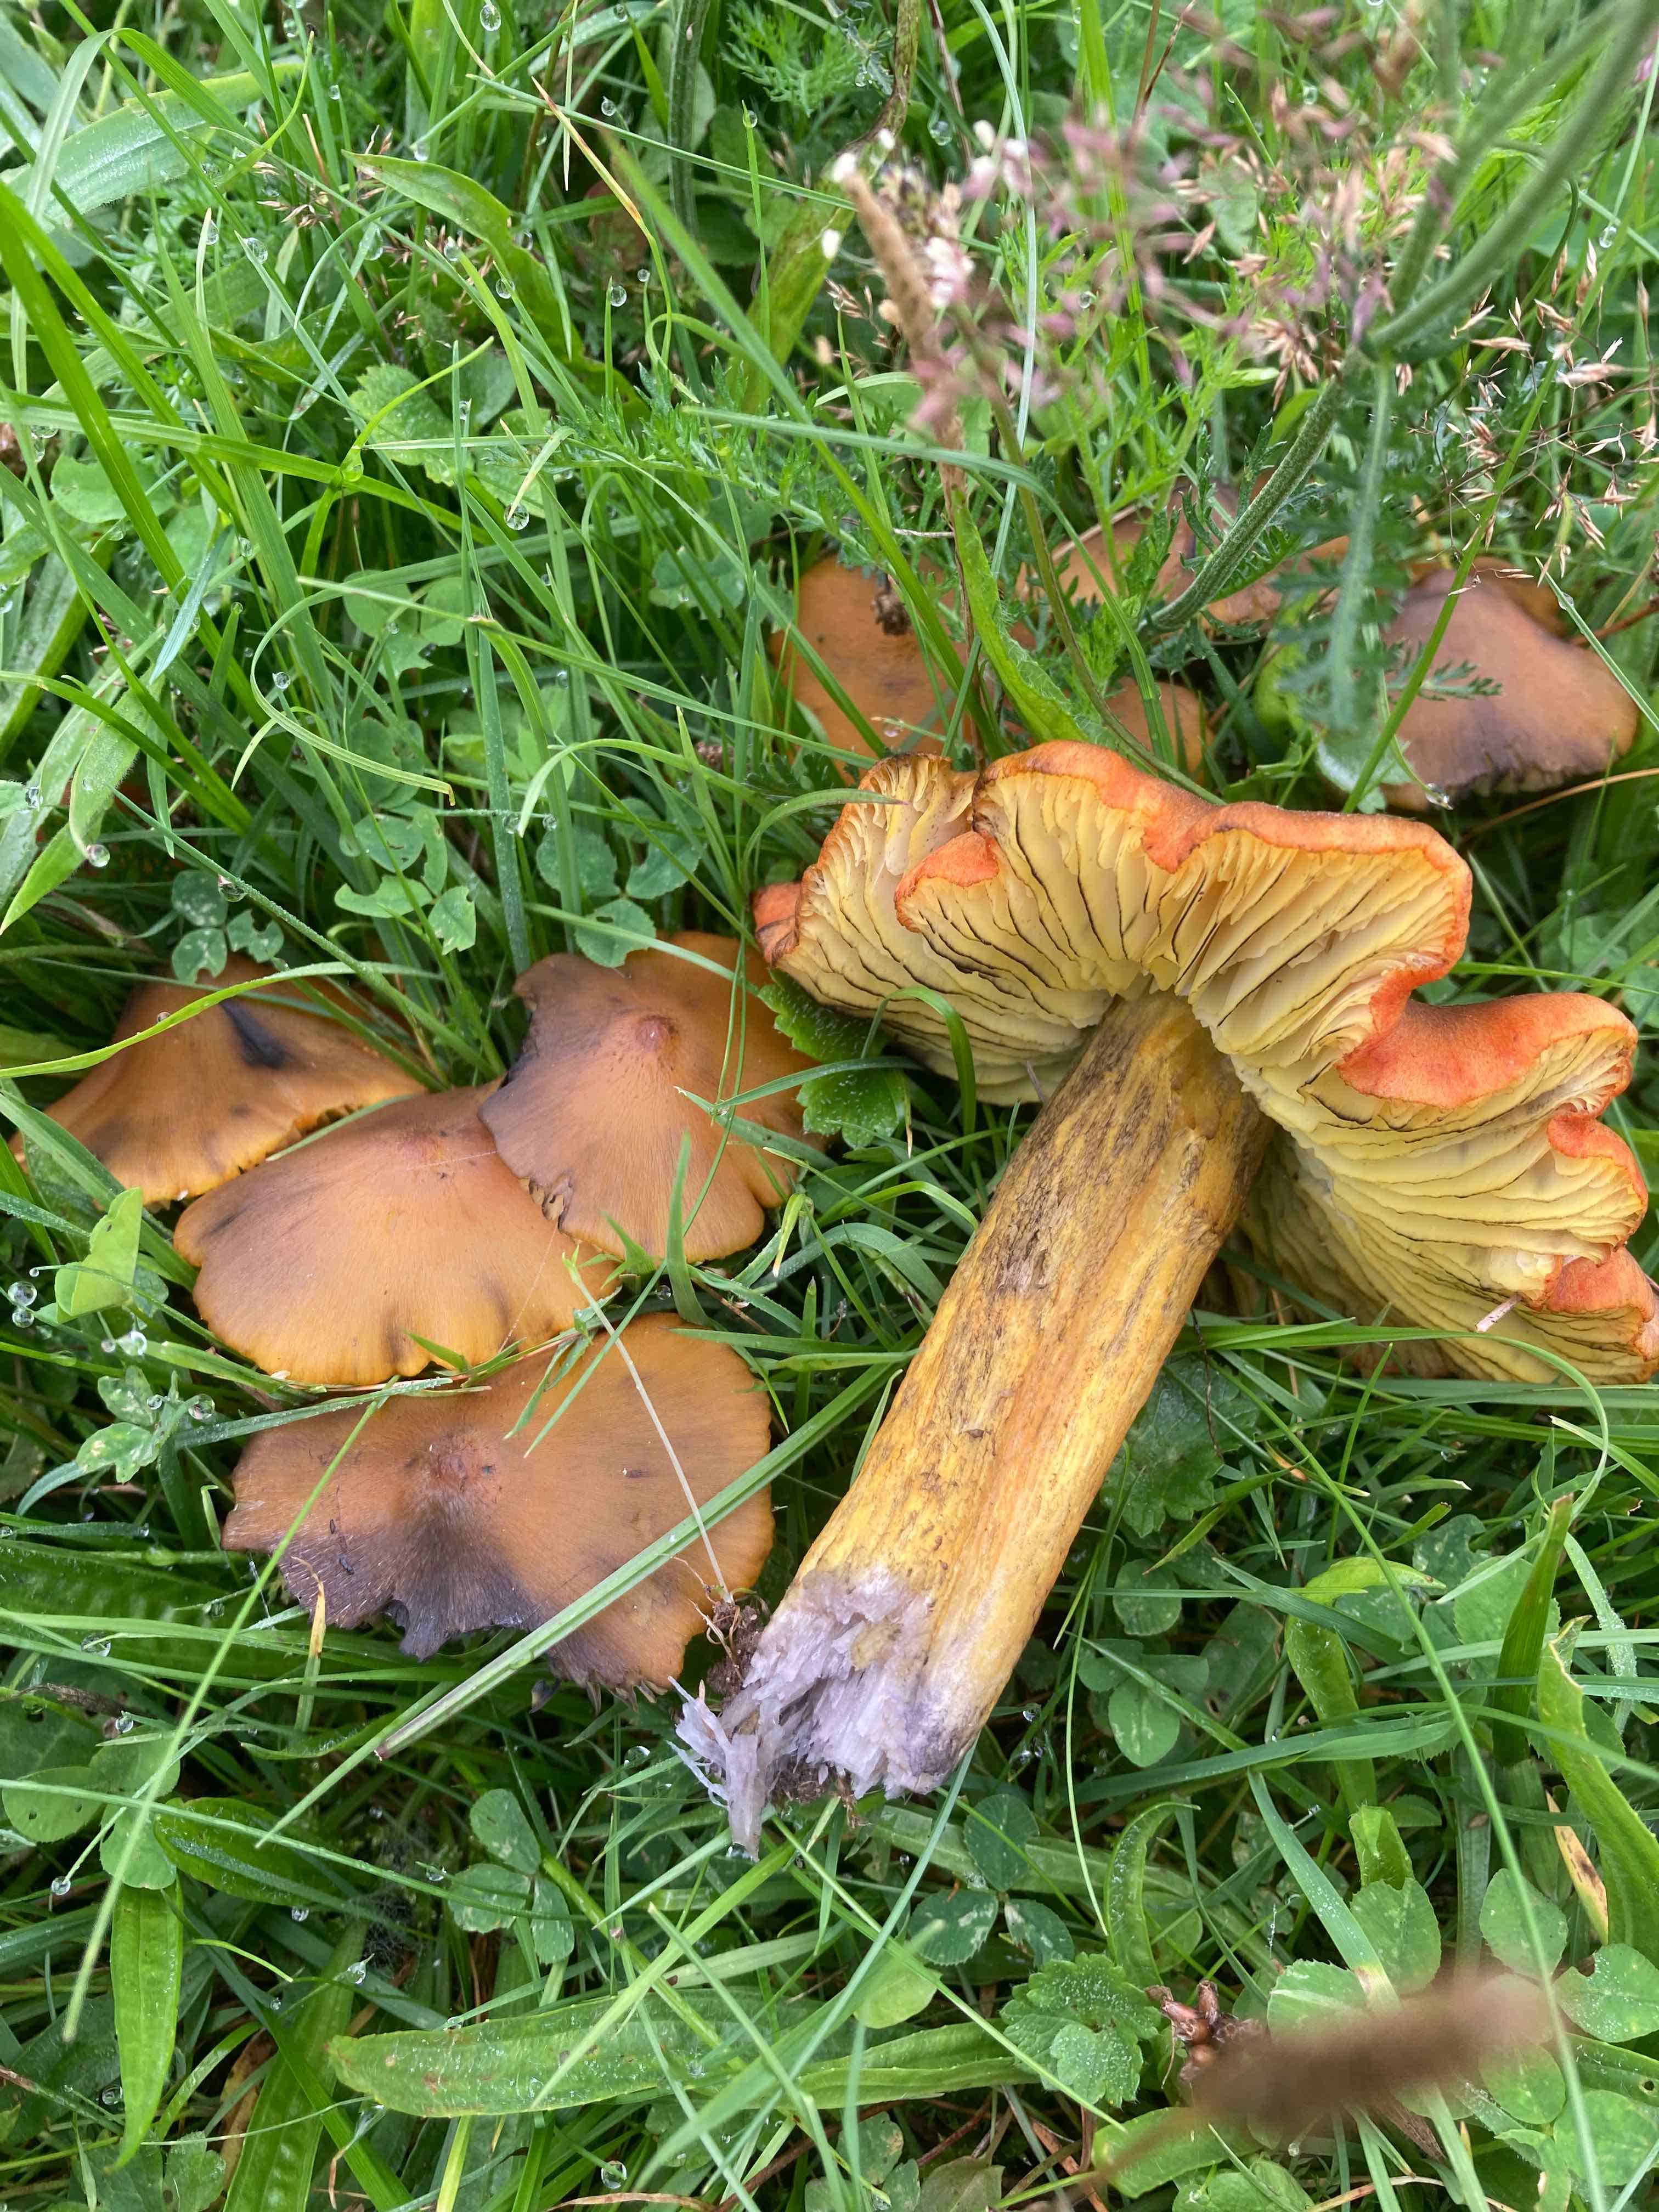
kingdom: Fungi
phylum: Basidiomycota
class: Agaricomycetes
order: Agaricales
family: Hygrophoraceae
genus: Hygrocybe
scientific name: Hygrocybe conica
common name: kegle-vokshat
